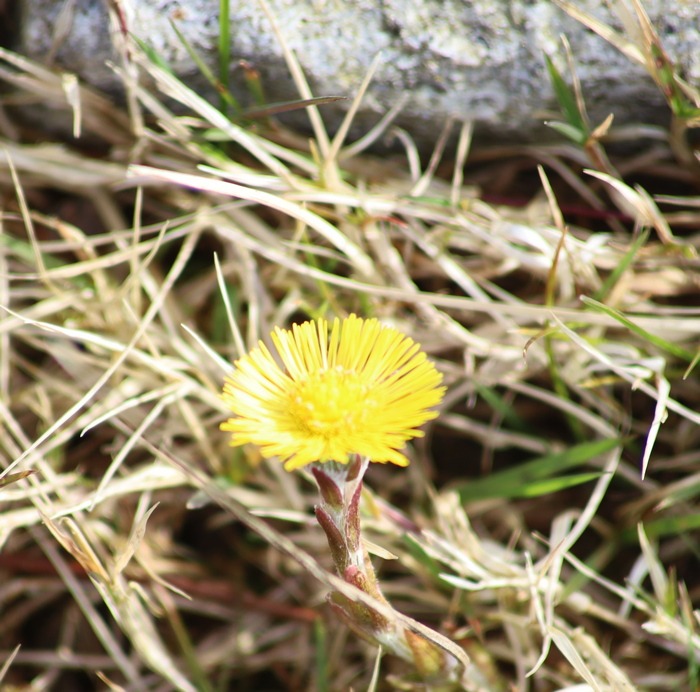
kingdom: Plantae
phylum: Tracheophyta
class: Magnoliopsida
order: Asterales
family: Asteraceae
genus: Tussilago
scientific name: Tussilago farfara
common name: Følfod
